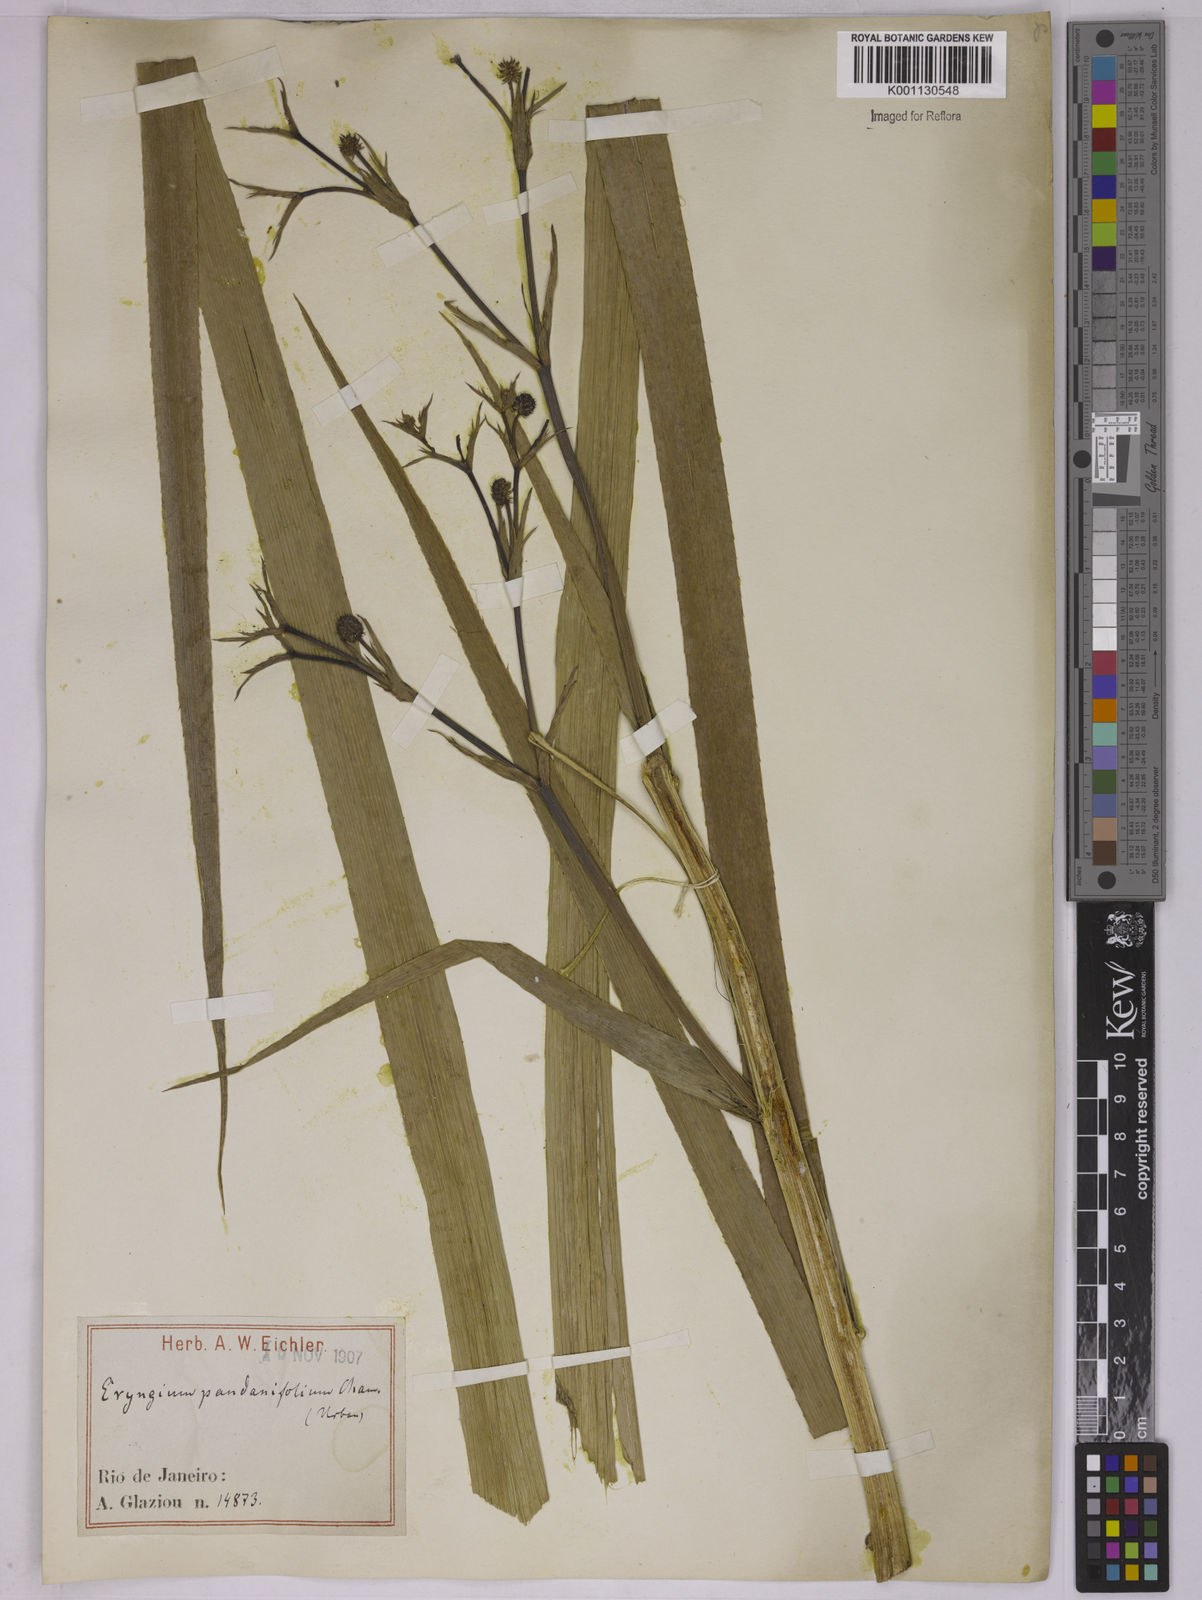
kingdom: Plantae
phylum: Tracheophyta
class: Magnoliopsida
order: Apiales
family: Apiaceae
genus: Eryngium
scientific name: Eryngium pandanifolium
